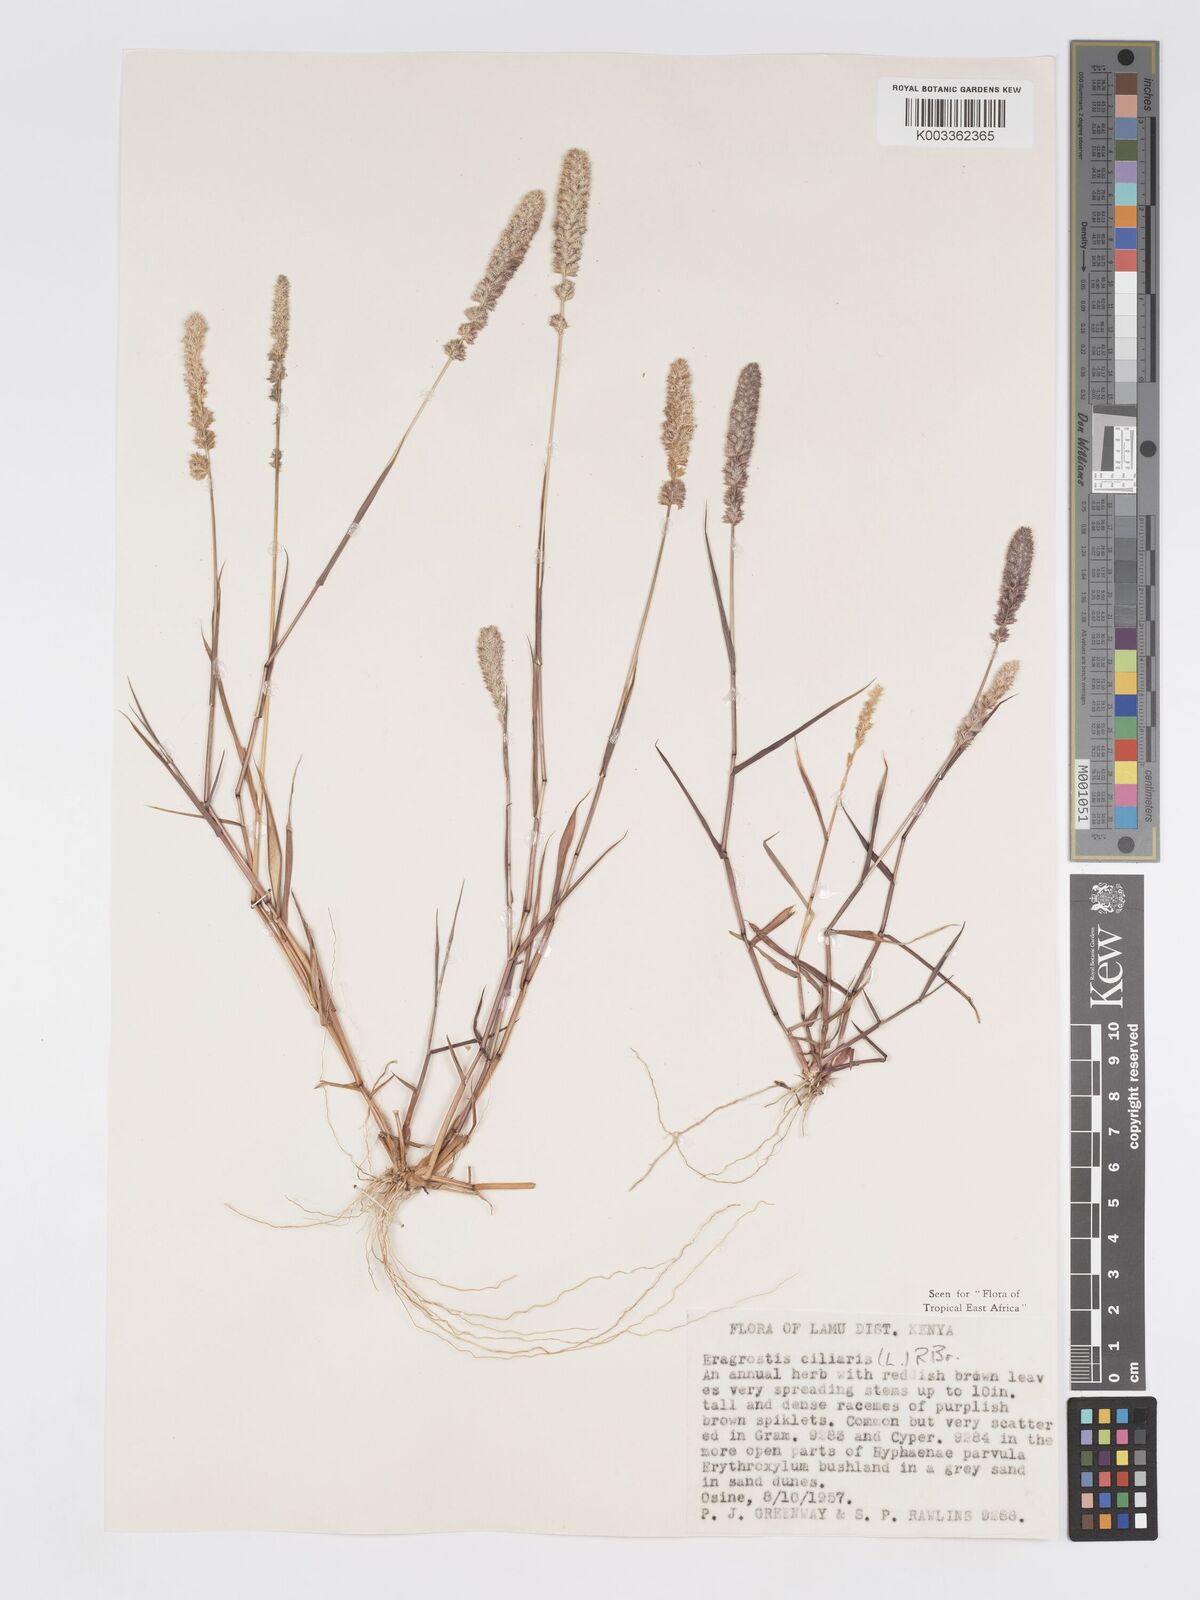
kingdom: Plantae
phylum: Tracheophyta
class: Liliopsida
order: Poales
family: Poaceae
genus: Eragrostis
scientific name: Eragrostis ciliaris
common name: Gophertail lovegrass
